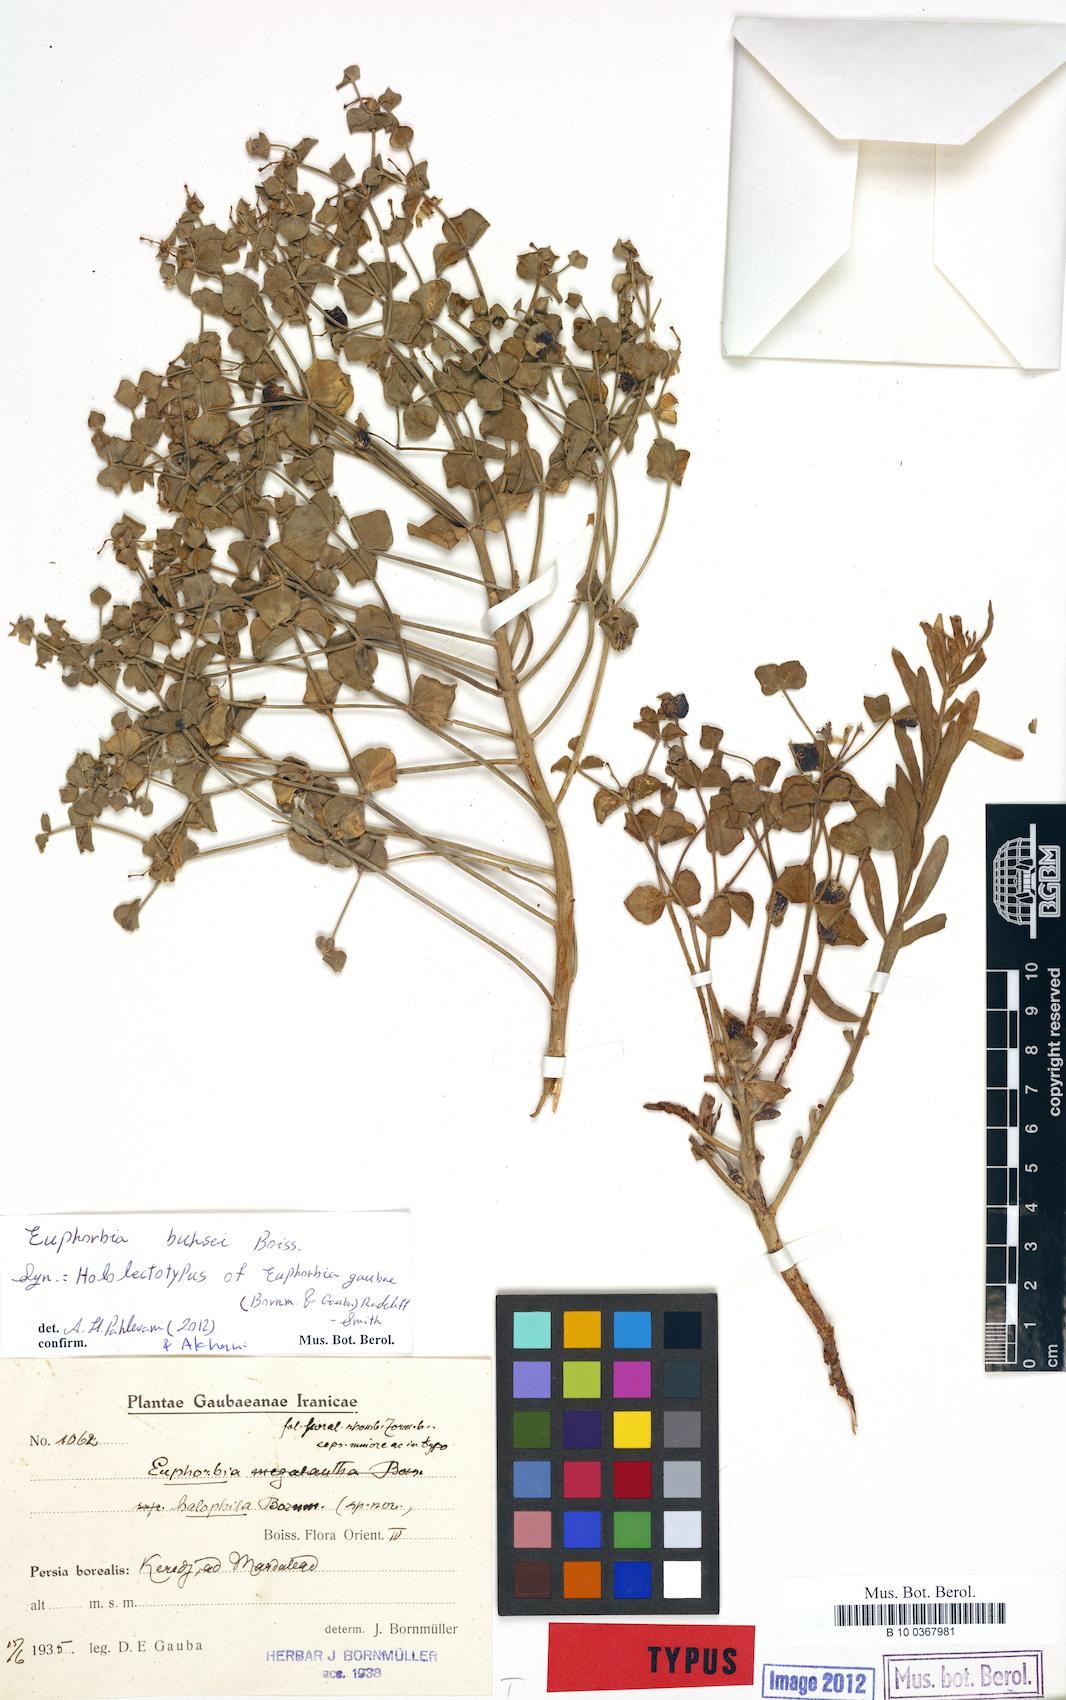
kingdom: Plantae
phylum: Tracheophyta
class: Magnoliopsida
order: Malpighiales
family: Euphorbiaceae
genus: Euphorbia
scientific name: Euphorbia buhsei
